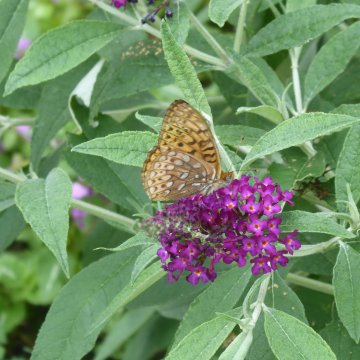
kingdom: Animalia
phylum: Arthropoda
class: Insecta
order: Lepidoptera
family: Nymphalidae
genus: Speyeria
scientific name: Speyeria atlantis
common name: Atlantis Fritillary
